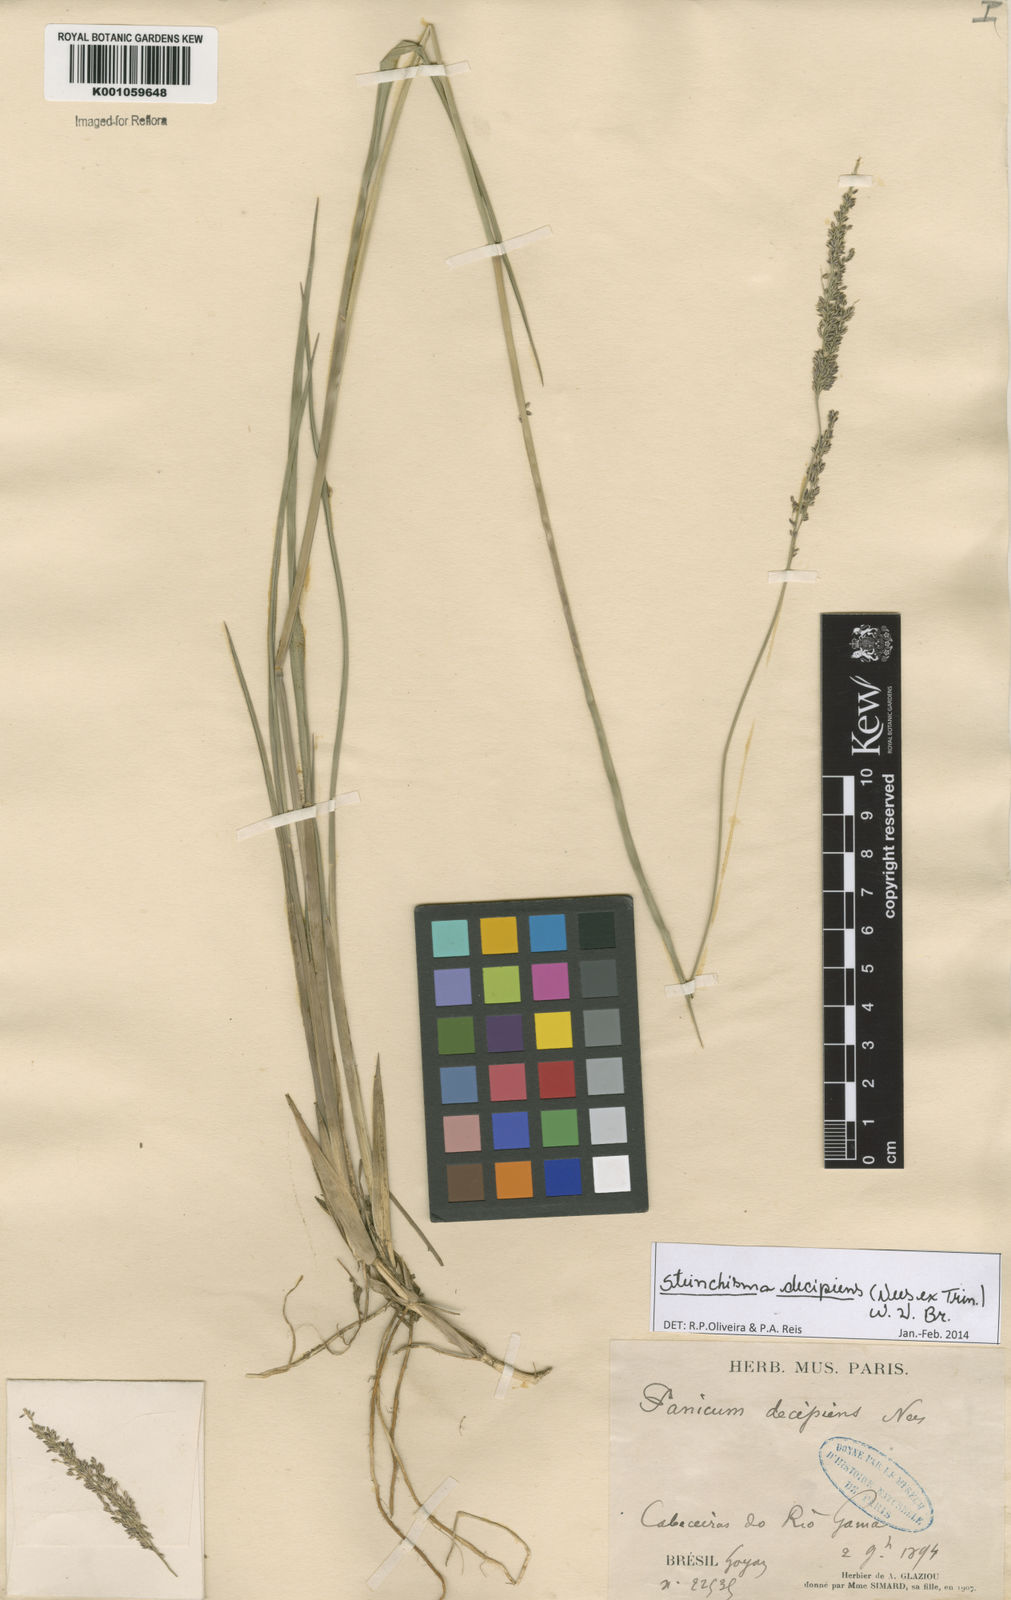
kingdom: Plantae
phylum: Tracheophyta
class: Liliopsida
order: Poales
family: Poaceae
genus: Steinchisma
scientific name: Steinchisma decipiens
